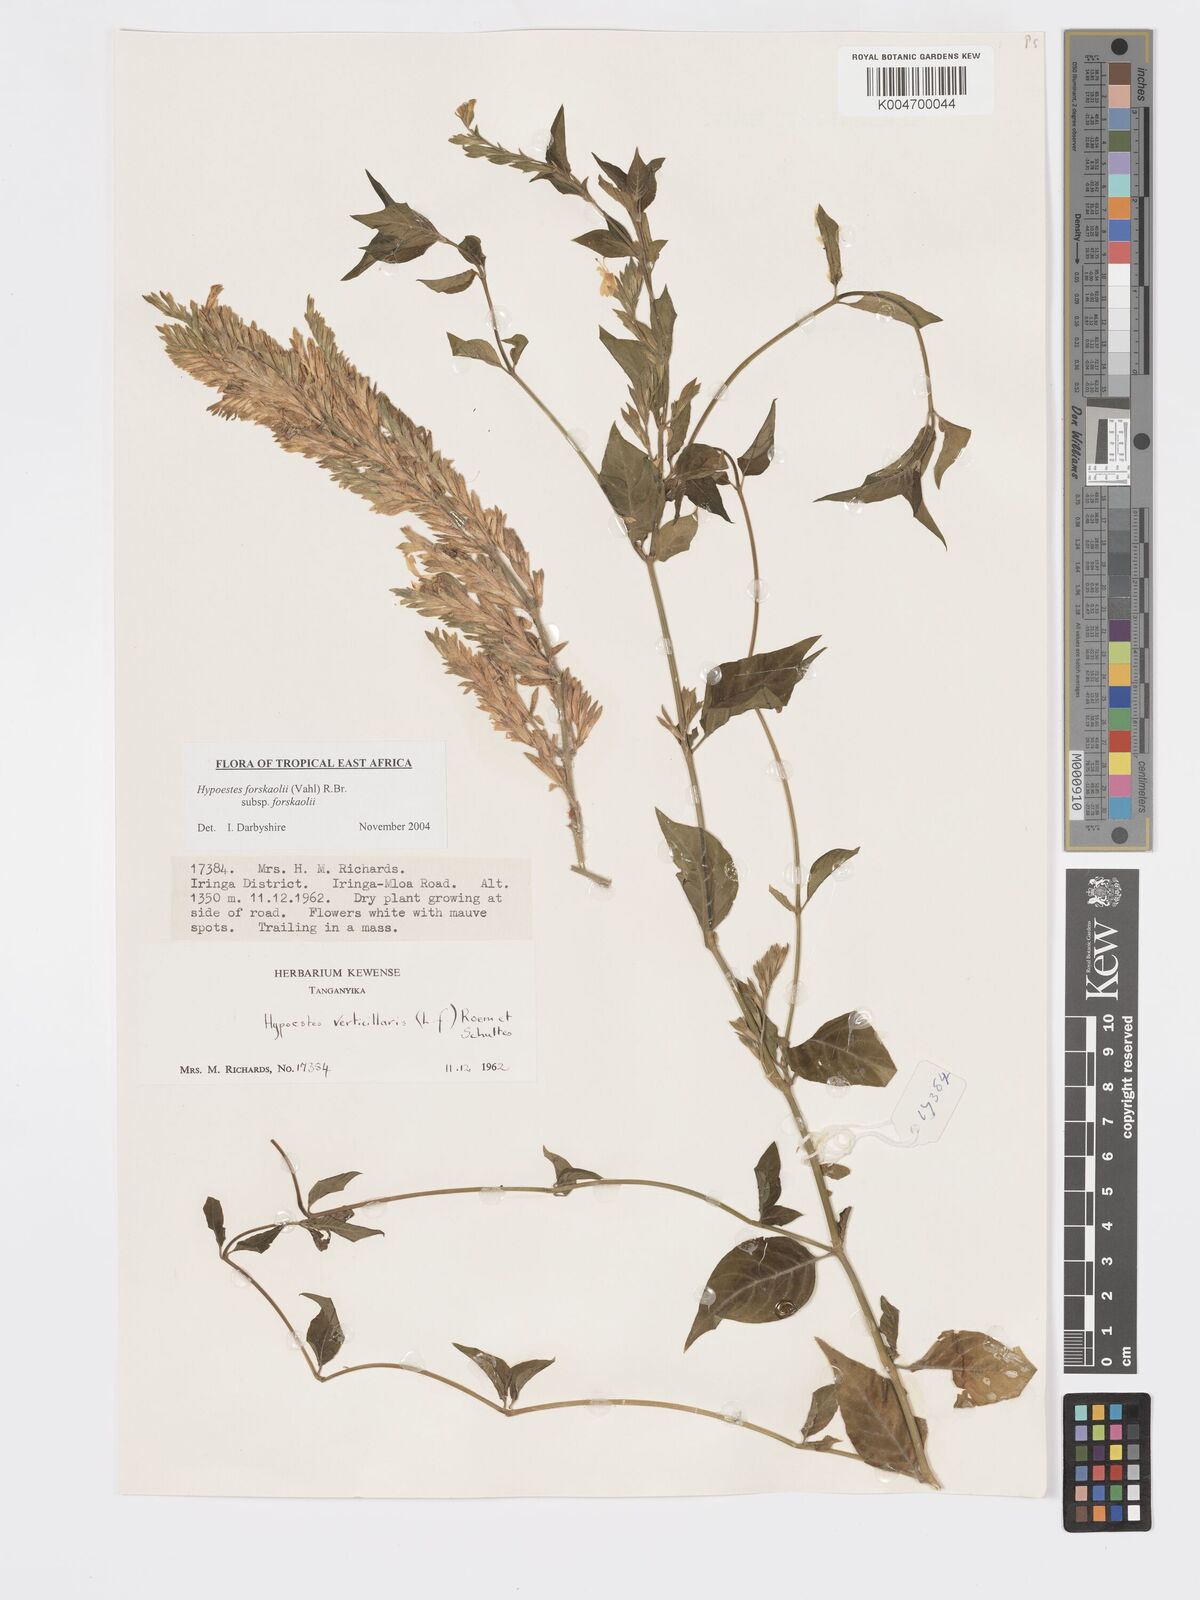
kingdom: Plantae
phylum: Tracheophyta
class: Magnoliopsida
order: Lamiales
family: Acanthaceae
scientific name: Acanthaceae
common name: Acanthaceae
